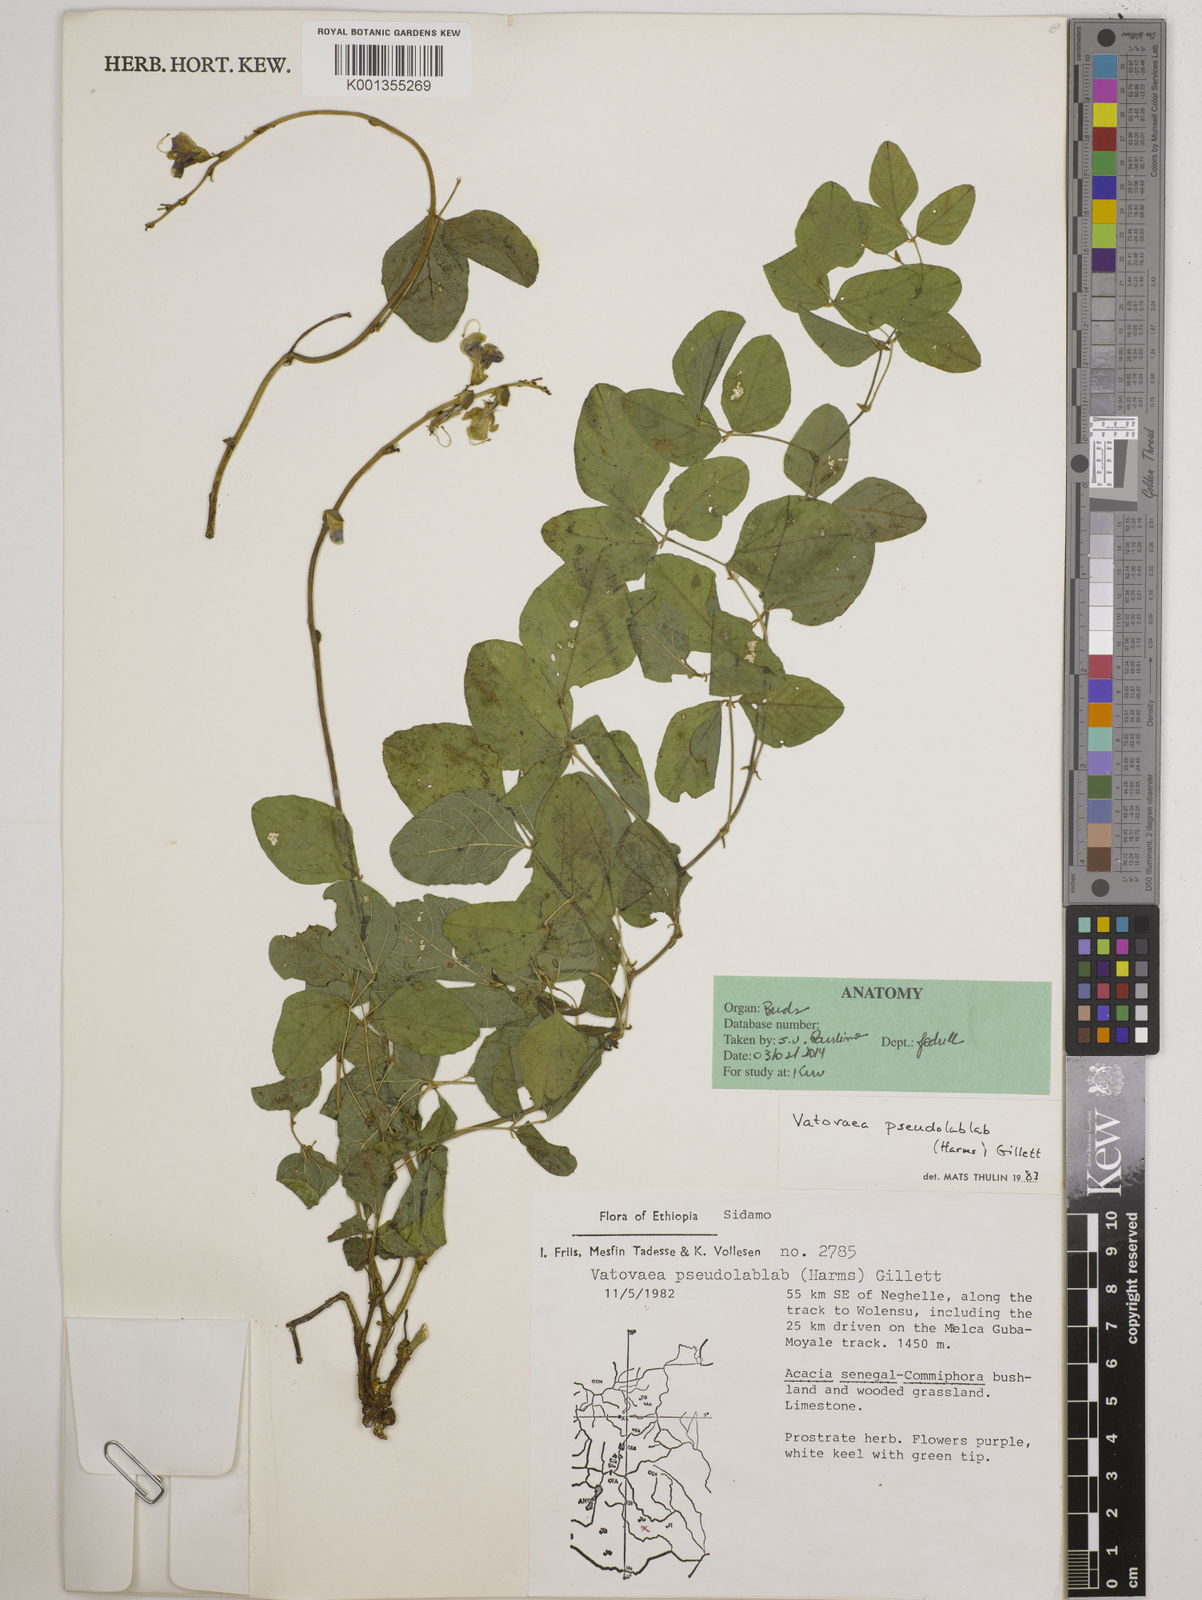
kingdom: Plantae
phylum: Tracheophyta
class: Magnoliopsida
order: Fabales
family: Fabaceae
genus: Vatovaea
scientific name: Vatovaea pseudolablab
